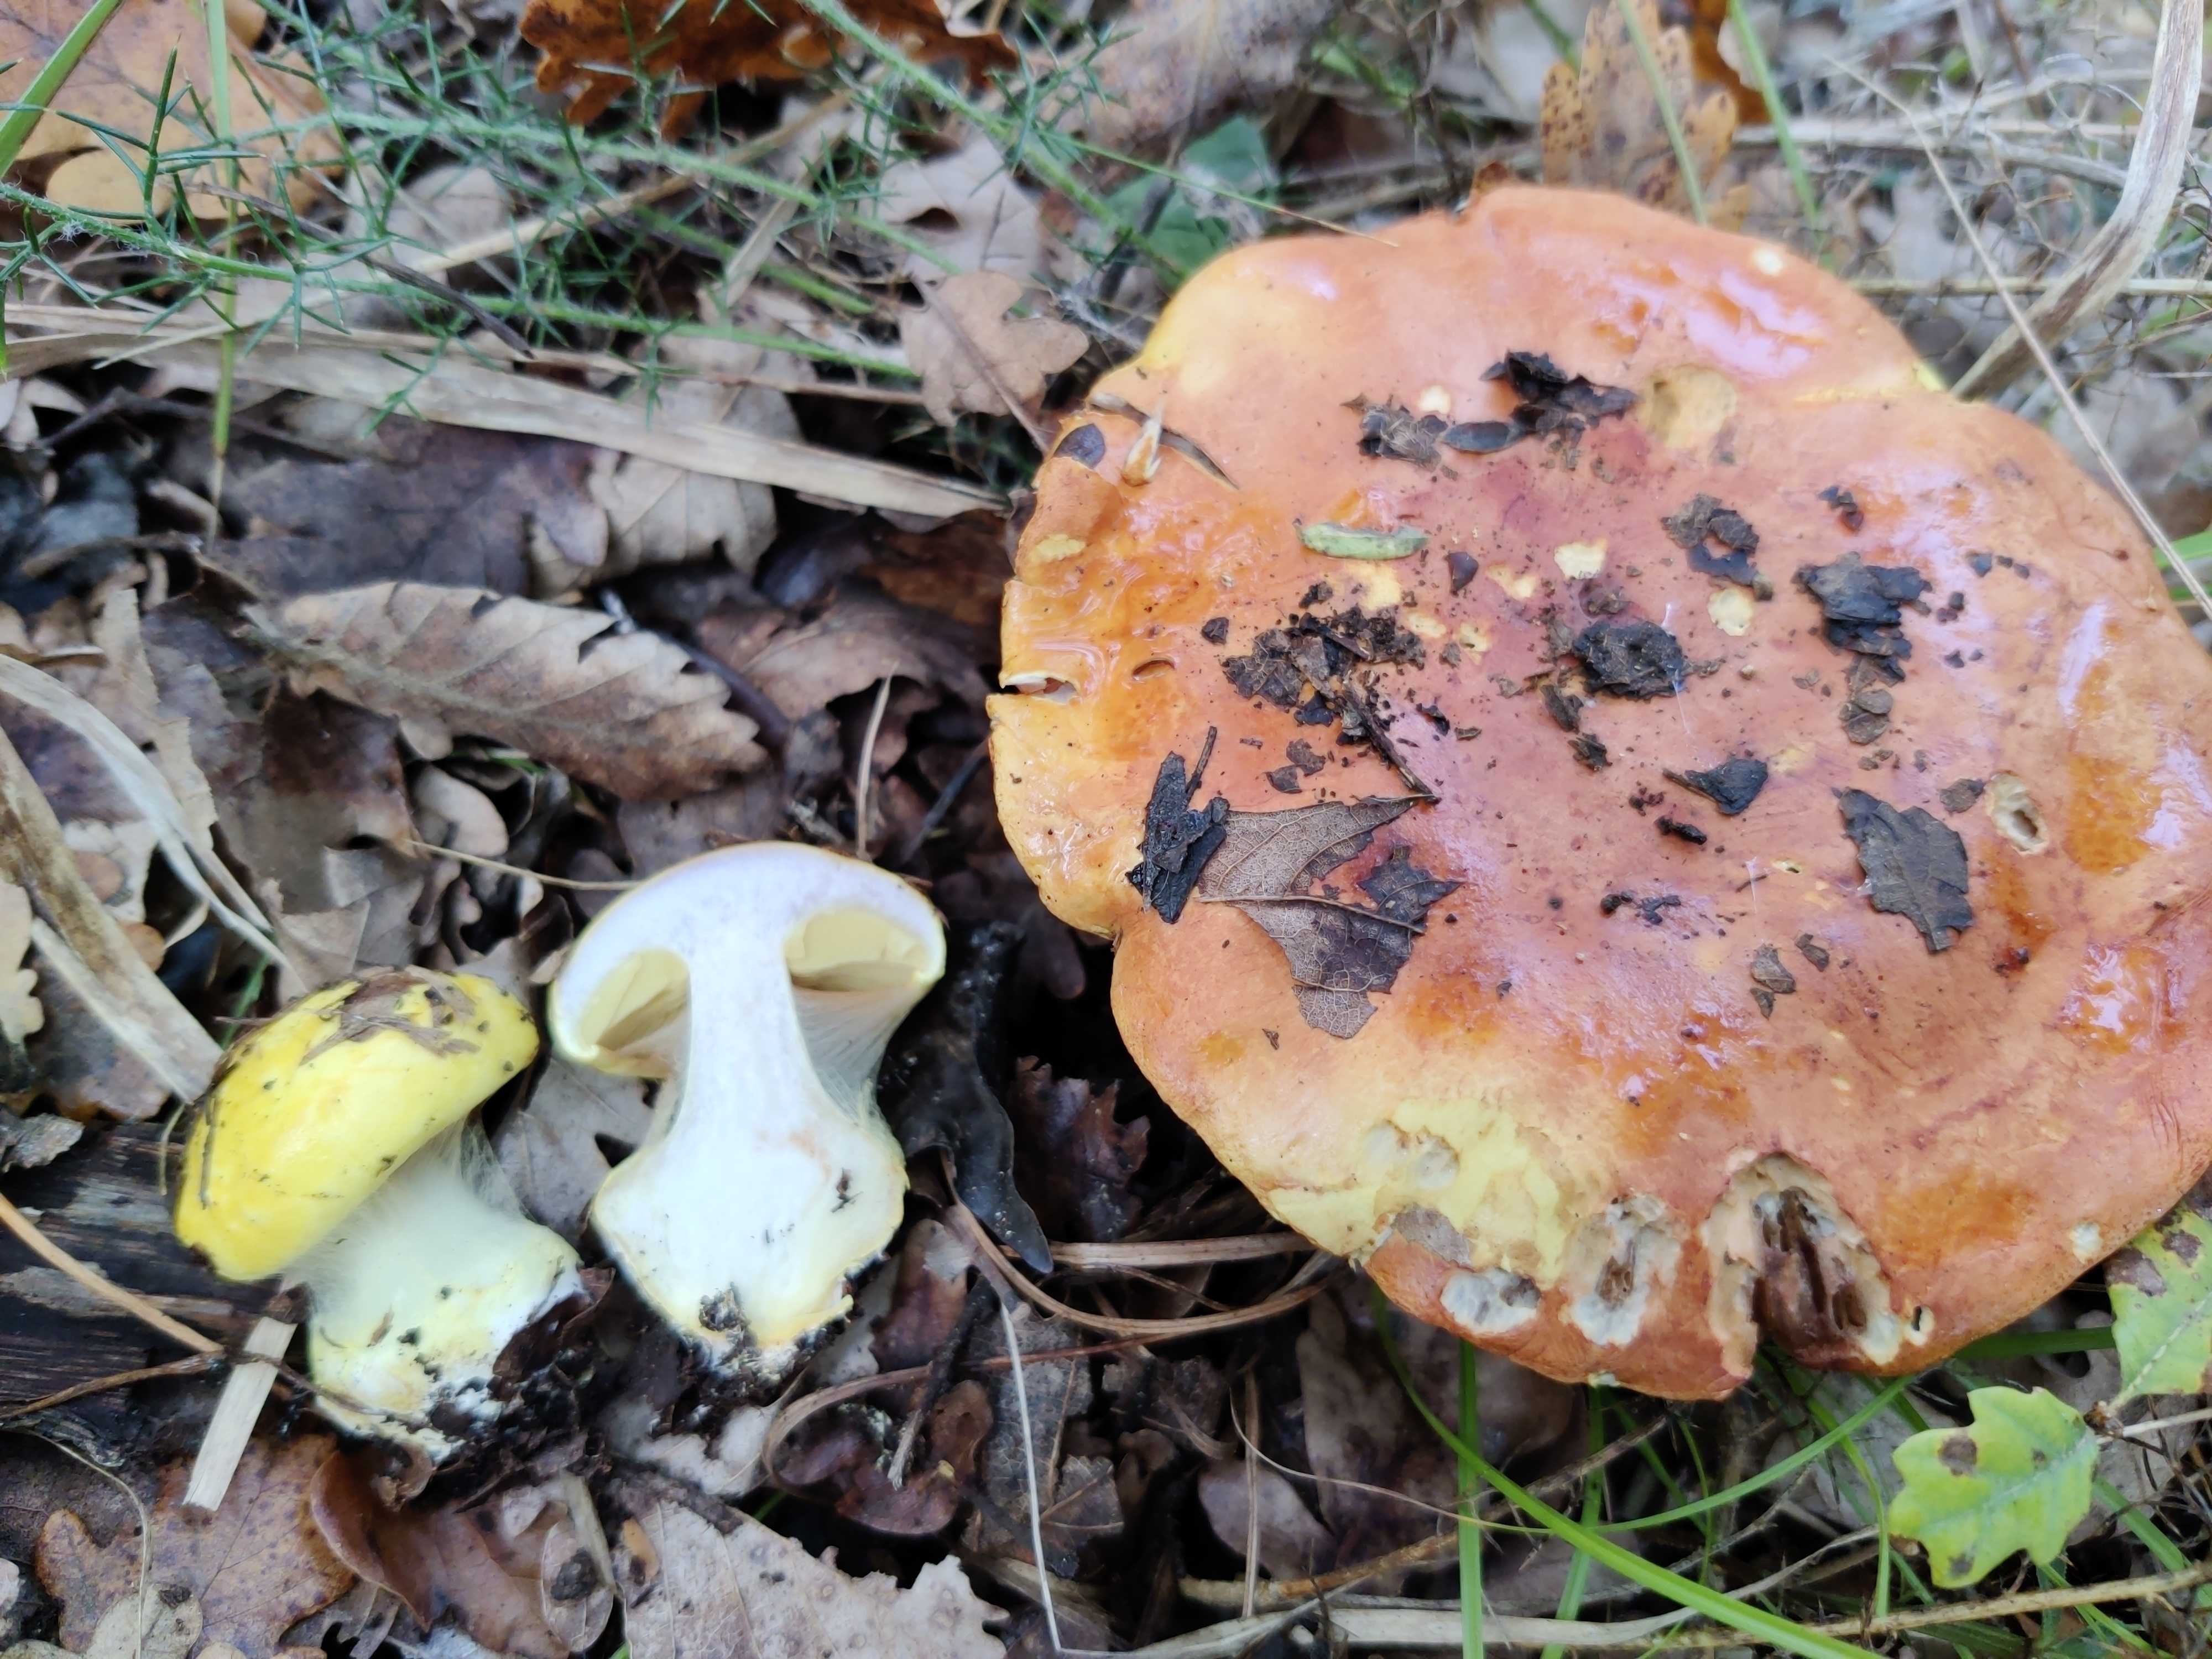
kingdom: Fungi
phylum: Basidiomycota
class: Agaricomycetes
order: Agaricales
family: Cortinariaceae
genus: Cortinarius
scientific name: Cortinarius bergeronii
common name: prægtig slørhat
